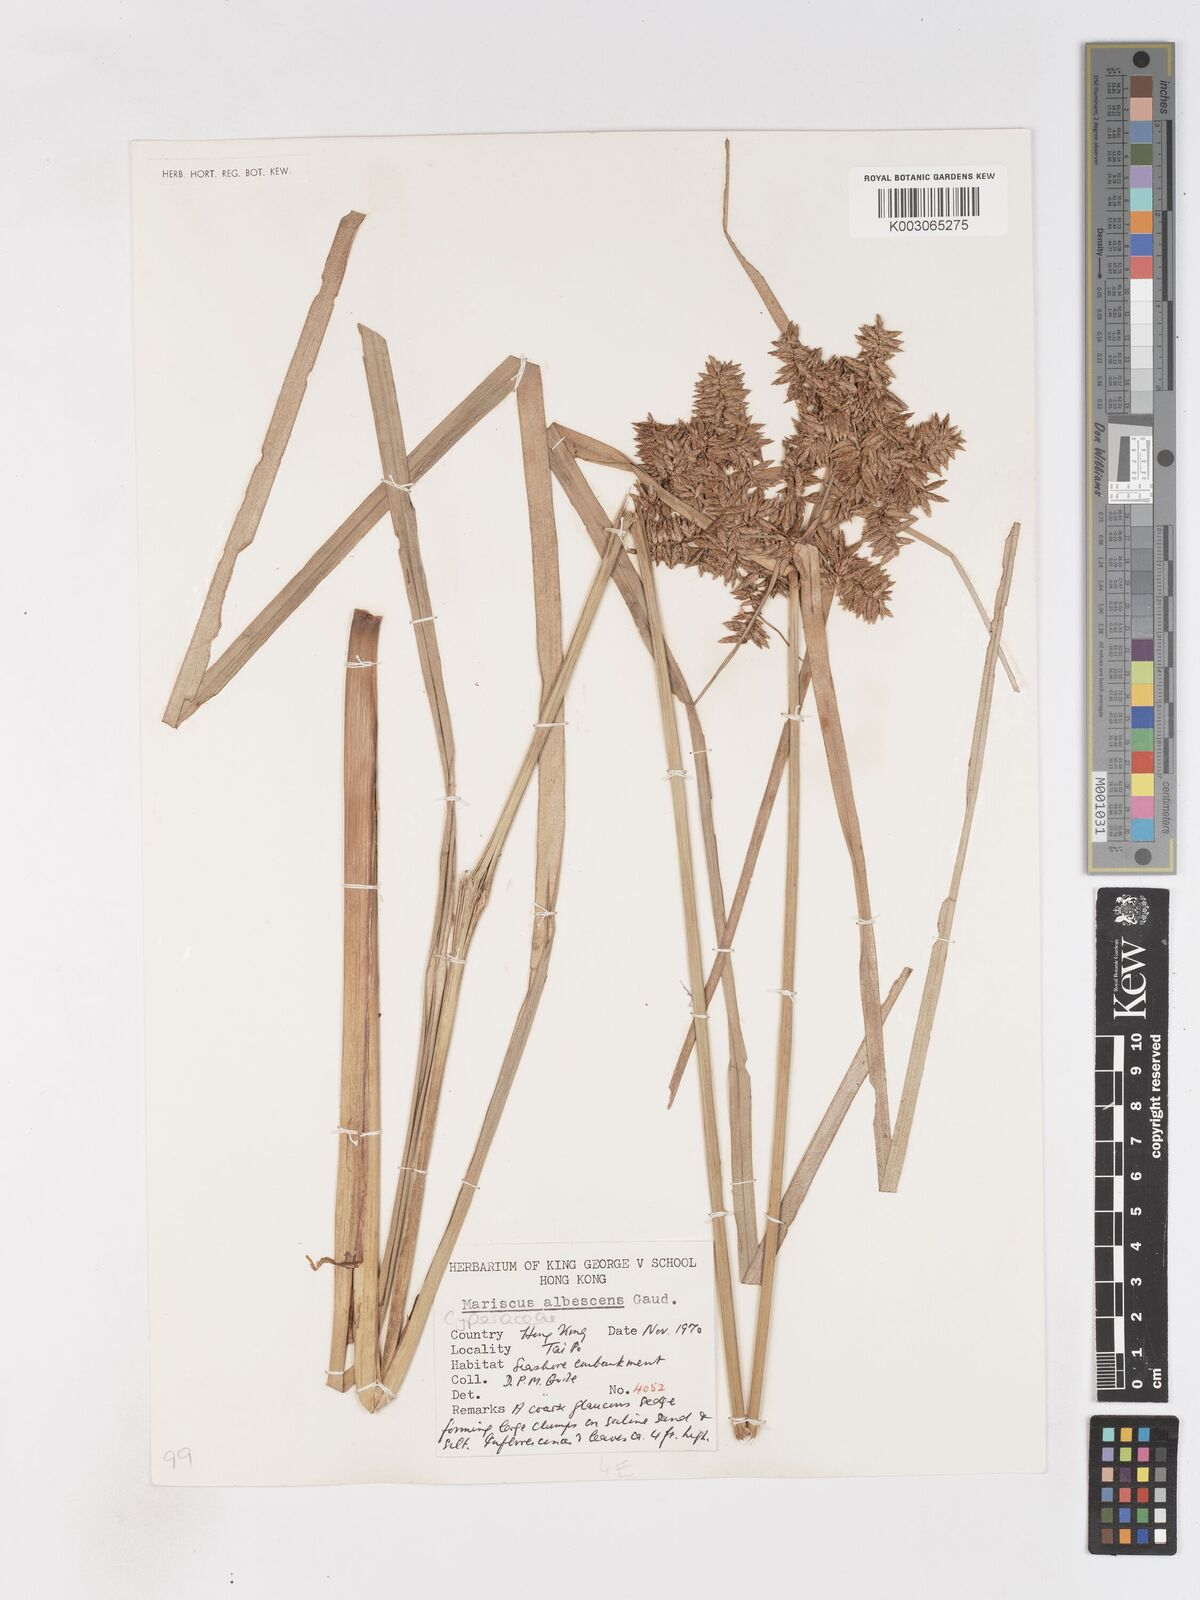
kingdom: Plantae
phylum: Tracheophyta
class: Liliopsida
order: Poales
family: Cyperaceae
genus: Cyperus
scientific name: Cyperus albescens
